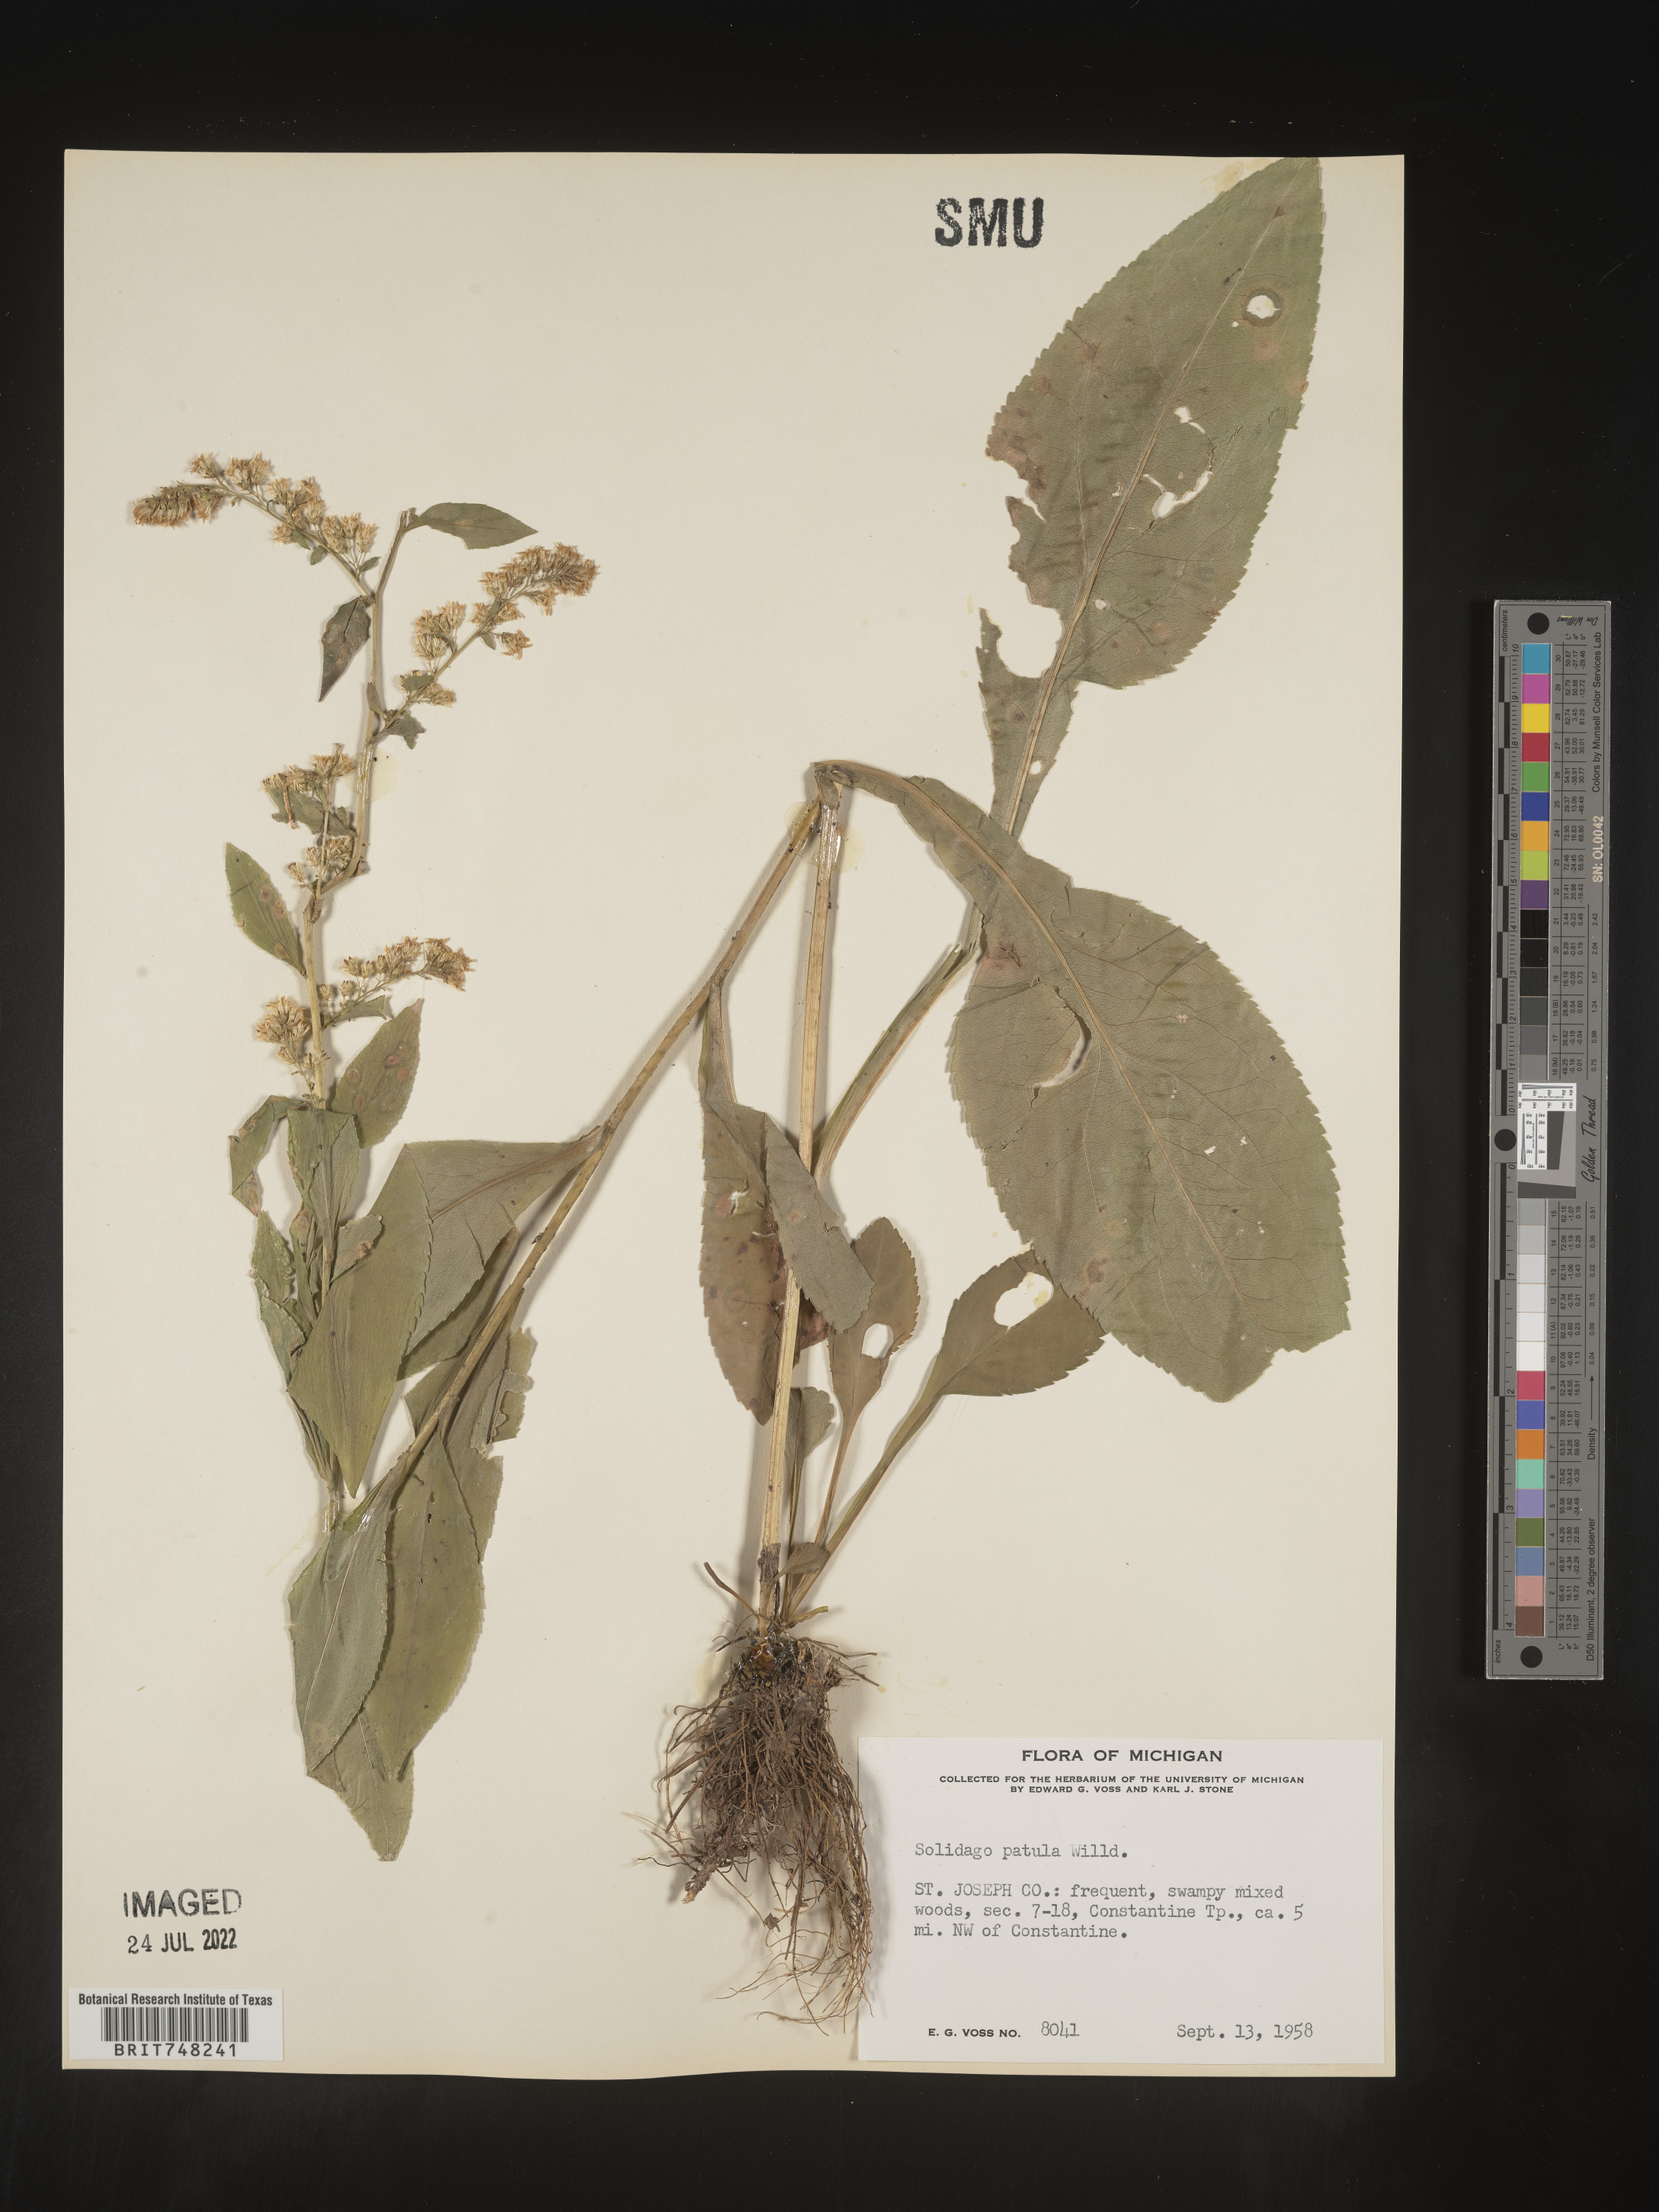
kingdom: Plantae
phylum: Tracheophyta
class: Magnoliopsida
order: Asterales
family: Asteraceae
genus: Solidago
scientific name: Solidago patula
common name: Rough-leaf goldenrod
